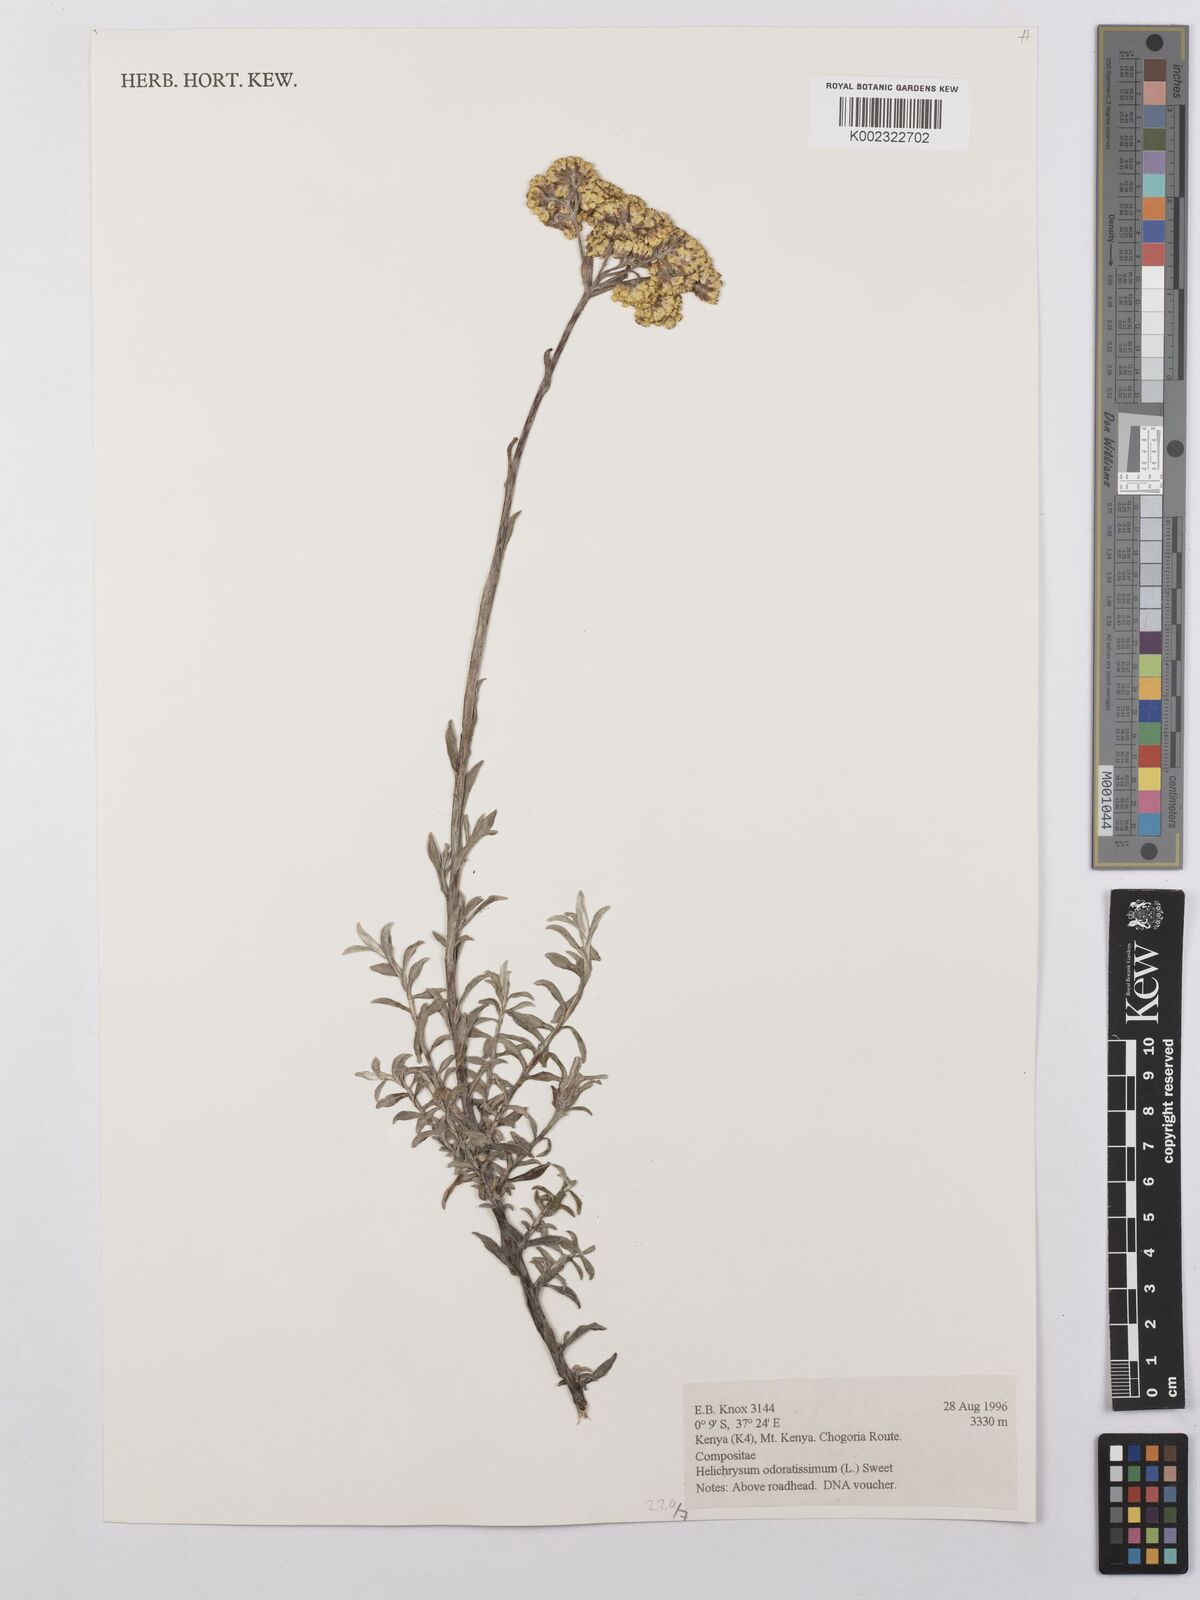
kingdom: Plantae
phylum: Tracheophyta
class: Magnoliopsida
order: Asterales
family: Asteraceae
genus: Helichrysum
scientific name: Helichrysum odoratissimum
